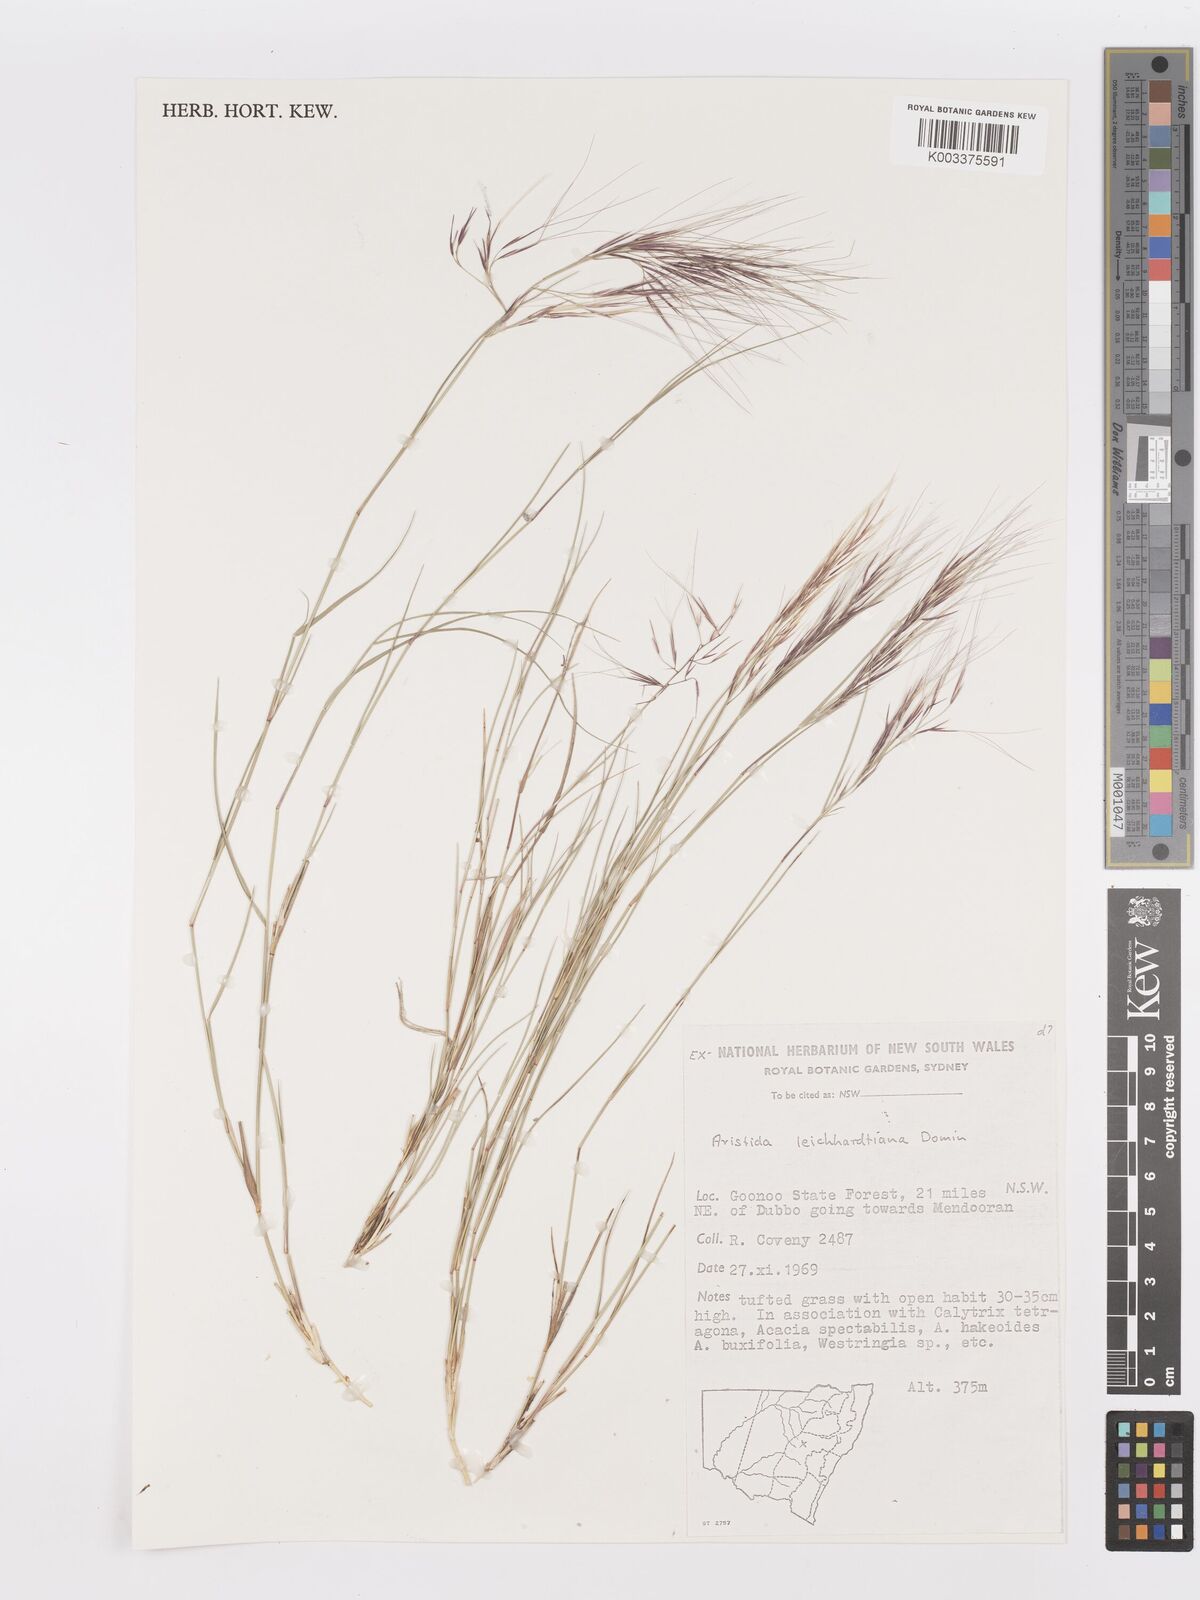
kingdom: Plantae
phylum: Tracheophyta
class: Liliopsida
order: Poales
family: Poaceae
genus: Aristida
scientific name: Aristida leichhardtiana
